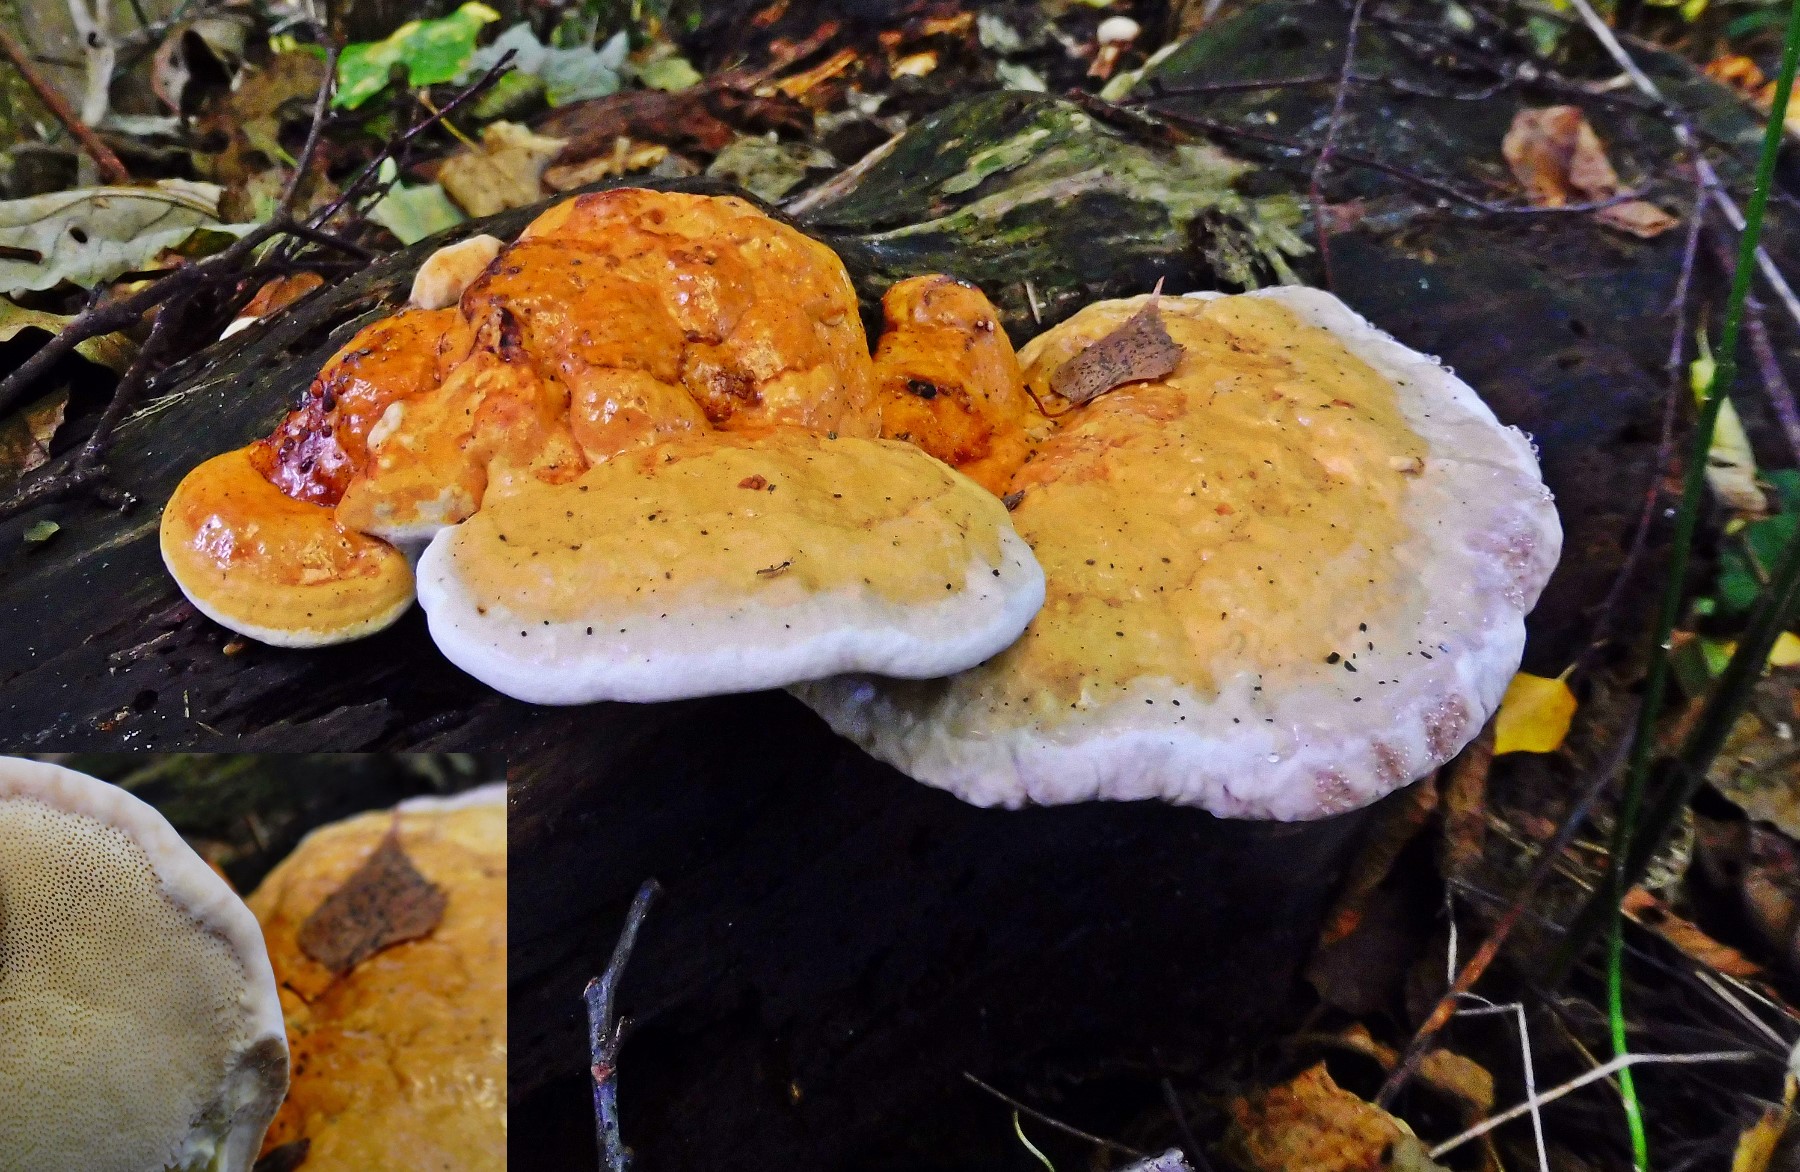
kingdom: Fungi
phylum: Basidiomycota
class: Agaricomycetes
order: Polyporales
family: Fomitopsidaceae
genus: Fomitopsis
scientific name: Fomitopsis pinicola
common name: randbæltet hovporesvamp
